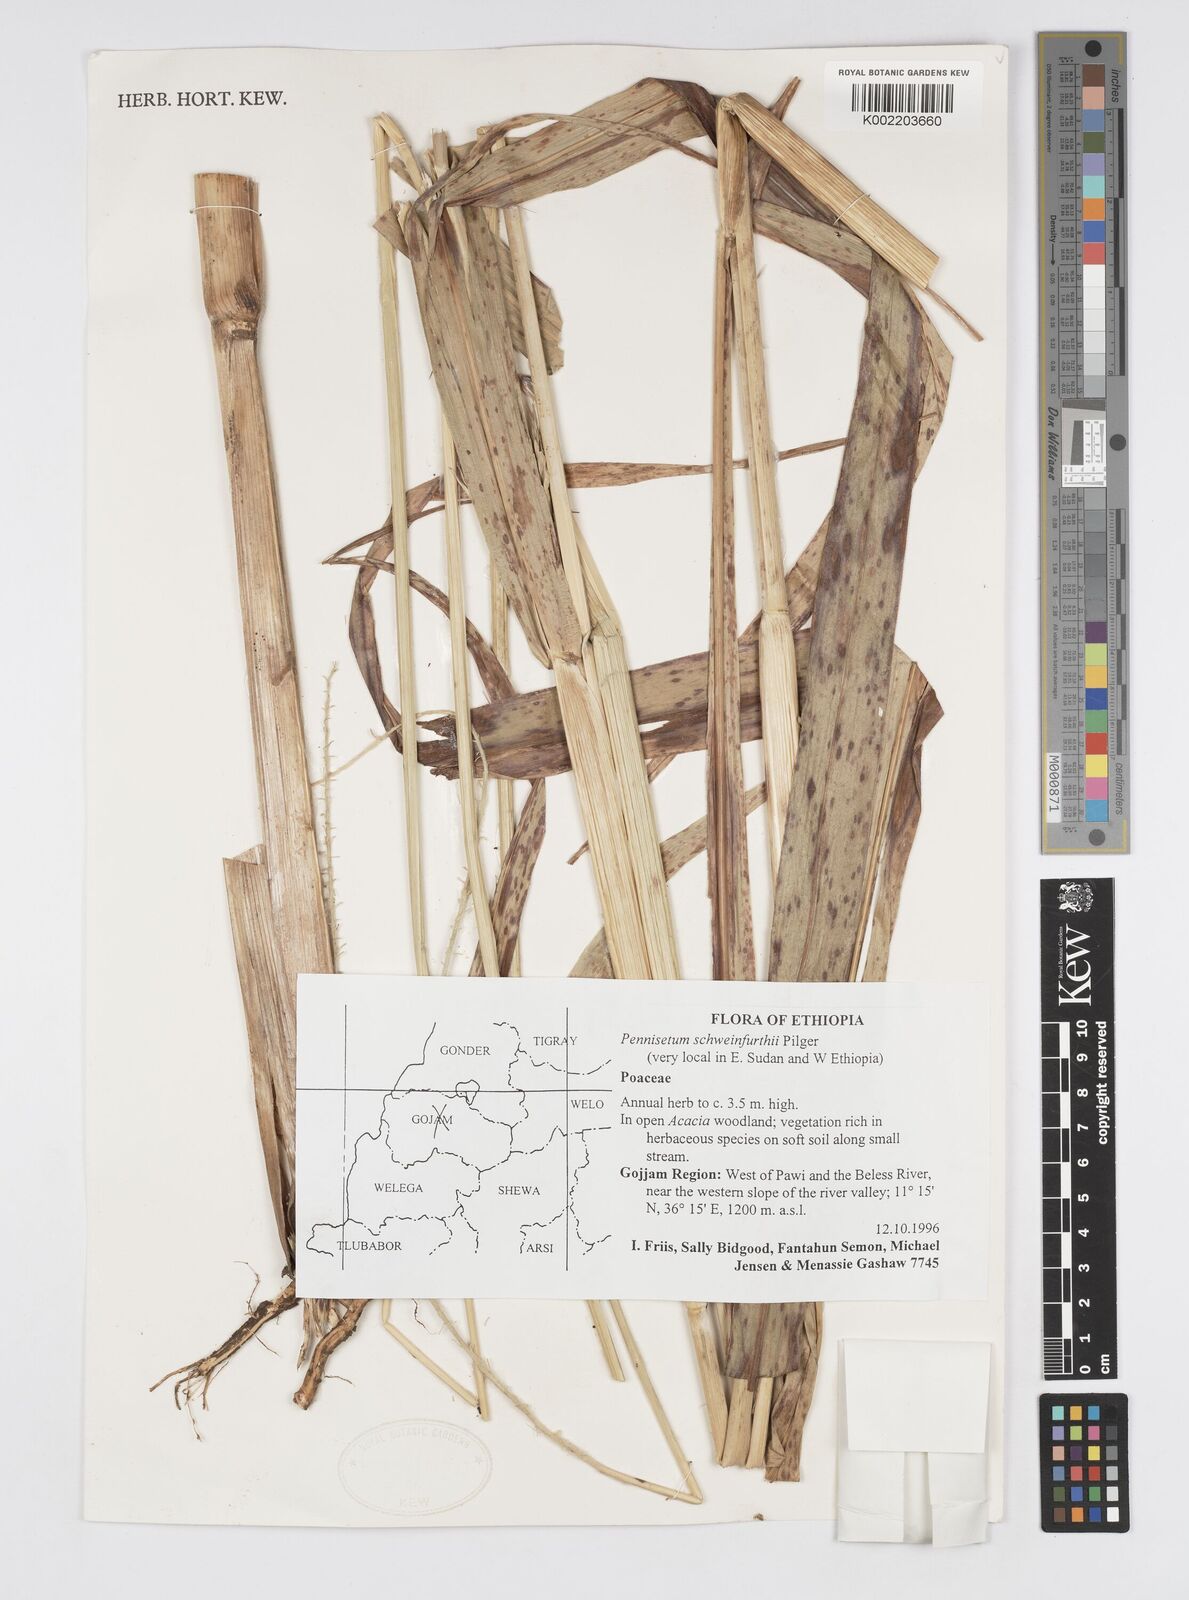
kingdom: Plantae
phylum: Tracheophyta
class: Liliopsida
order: Poales
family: Poaceae
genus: Cenchrus
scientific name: Cenchrus schweinfurthii
